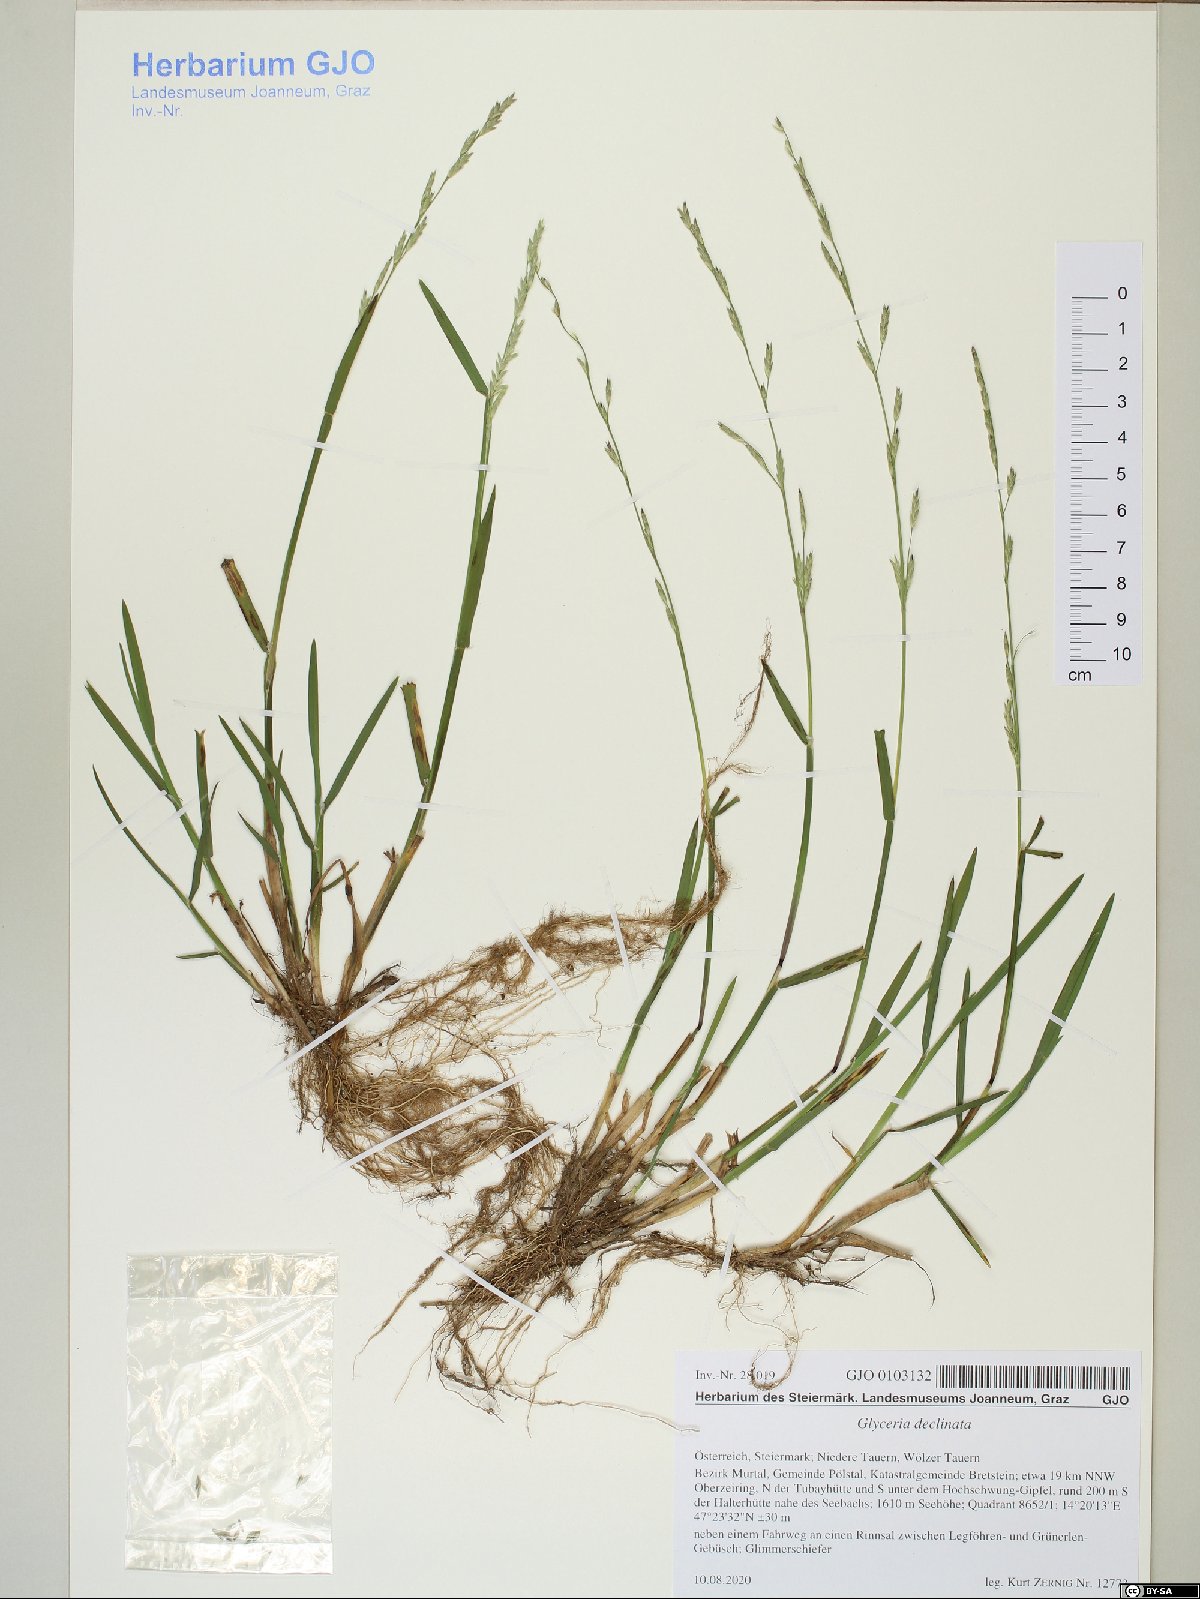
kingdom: Plantae
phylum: Tracheophyta
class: Liliopsida
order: Poales
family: Poaceae
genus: Glyceria
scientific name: Glyceria declinata
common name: Small sweet-grass
